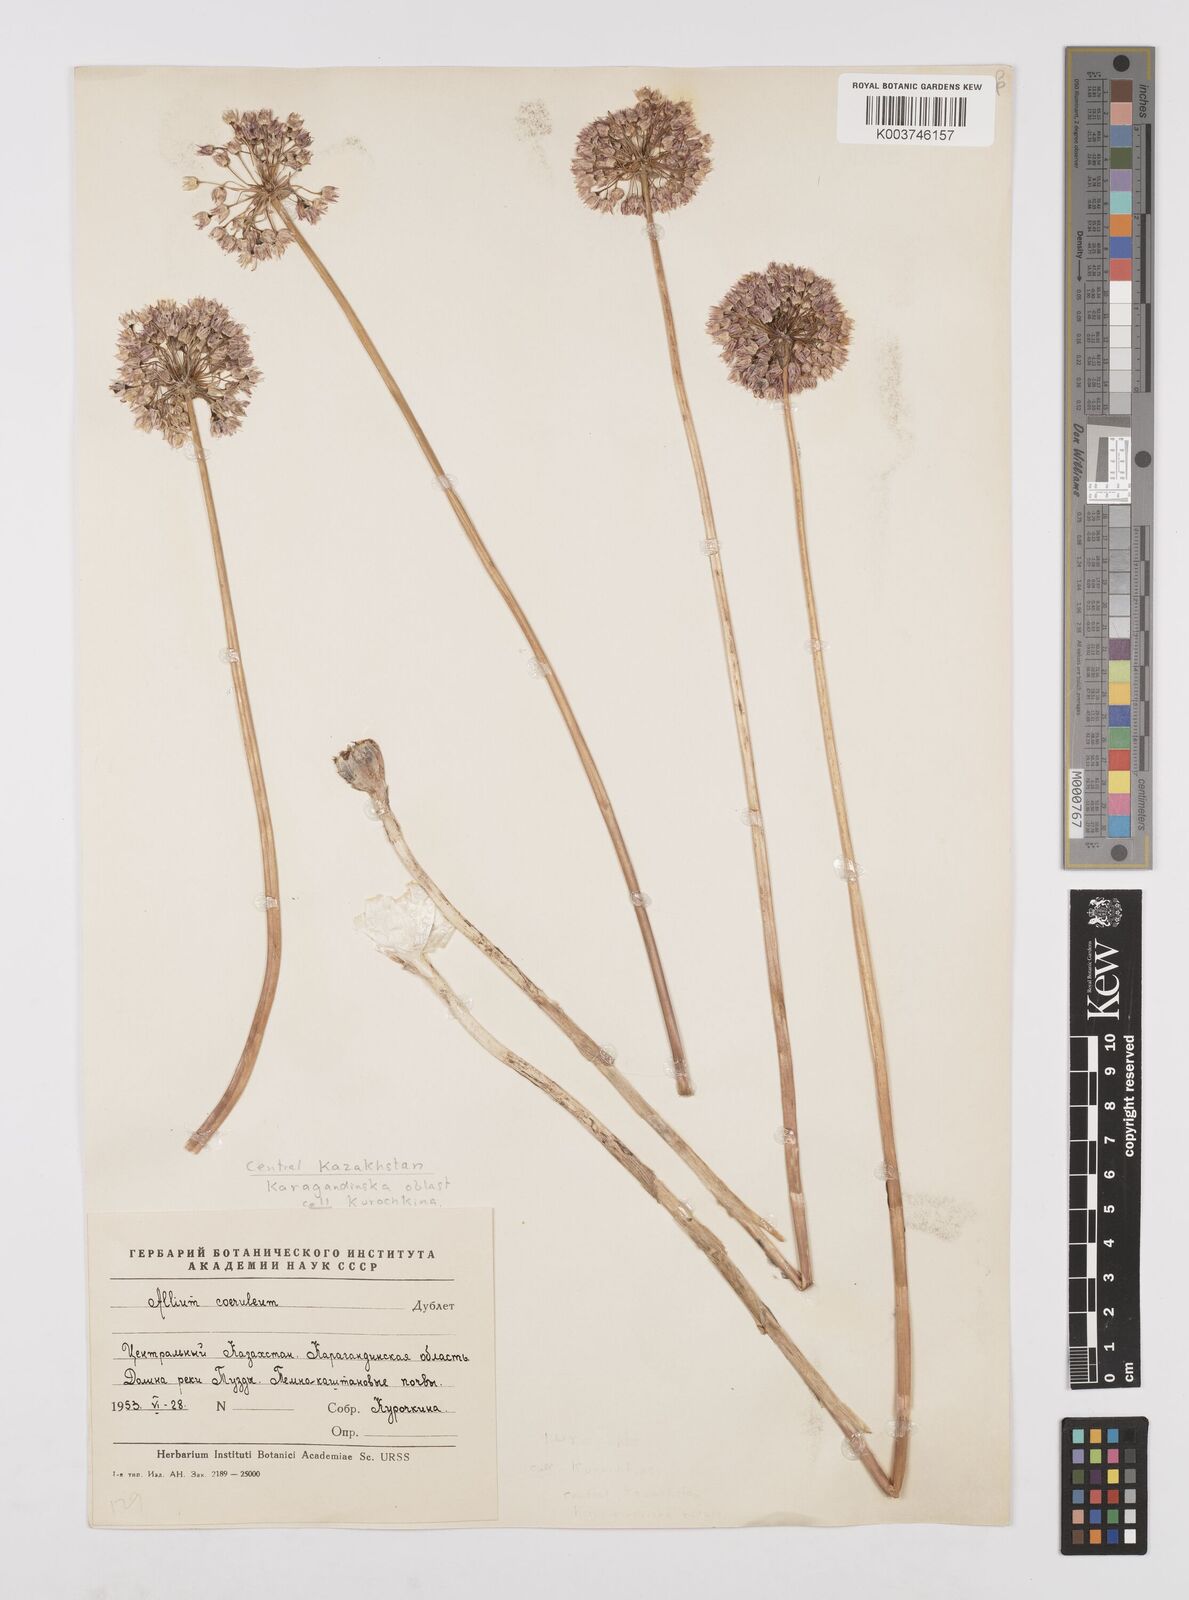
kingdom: Plantae
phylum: Tracheophyta
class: Liliopsida
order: Asparagales
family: Amaryllidaceae
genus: Allium
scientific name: Allium caeruleum
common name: Blue-of-the-heavens
